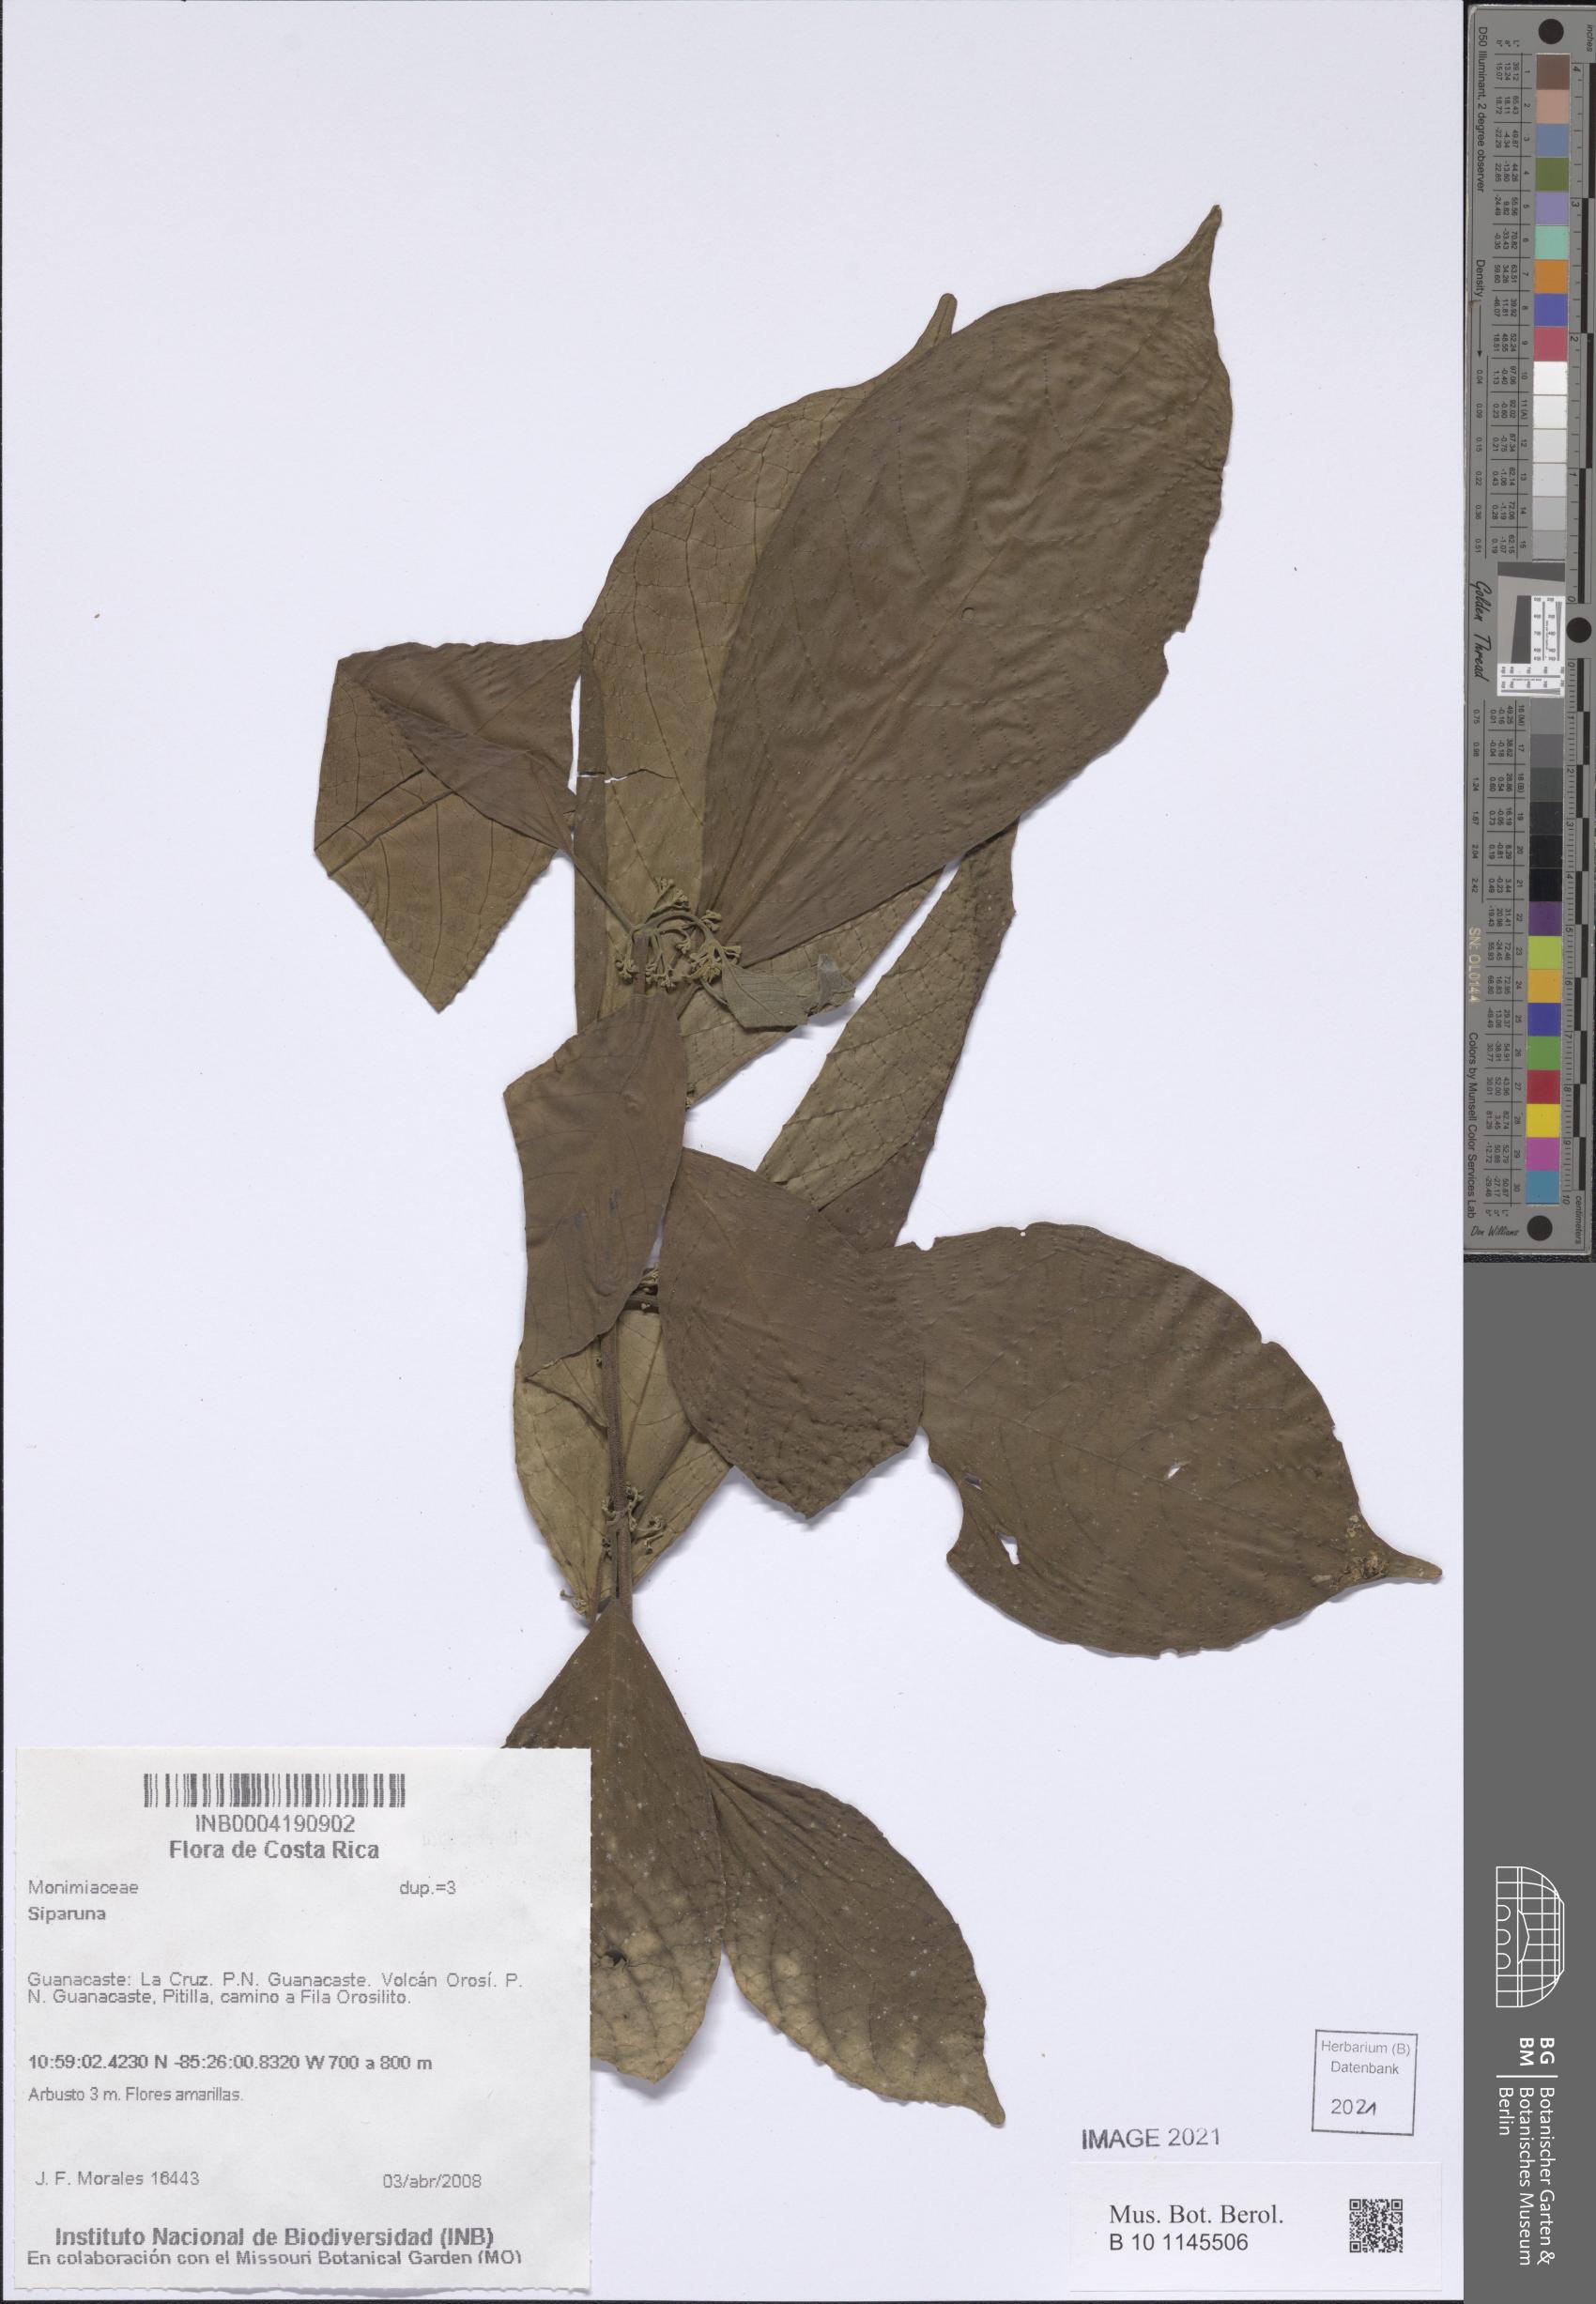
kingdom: Plantae
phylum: Tracheophyta
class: Magnoliopsida
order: Laurales
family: Siparunaceae
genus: Siparuna
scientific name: Siparuna
